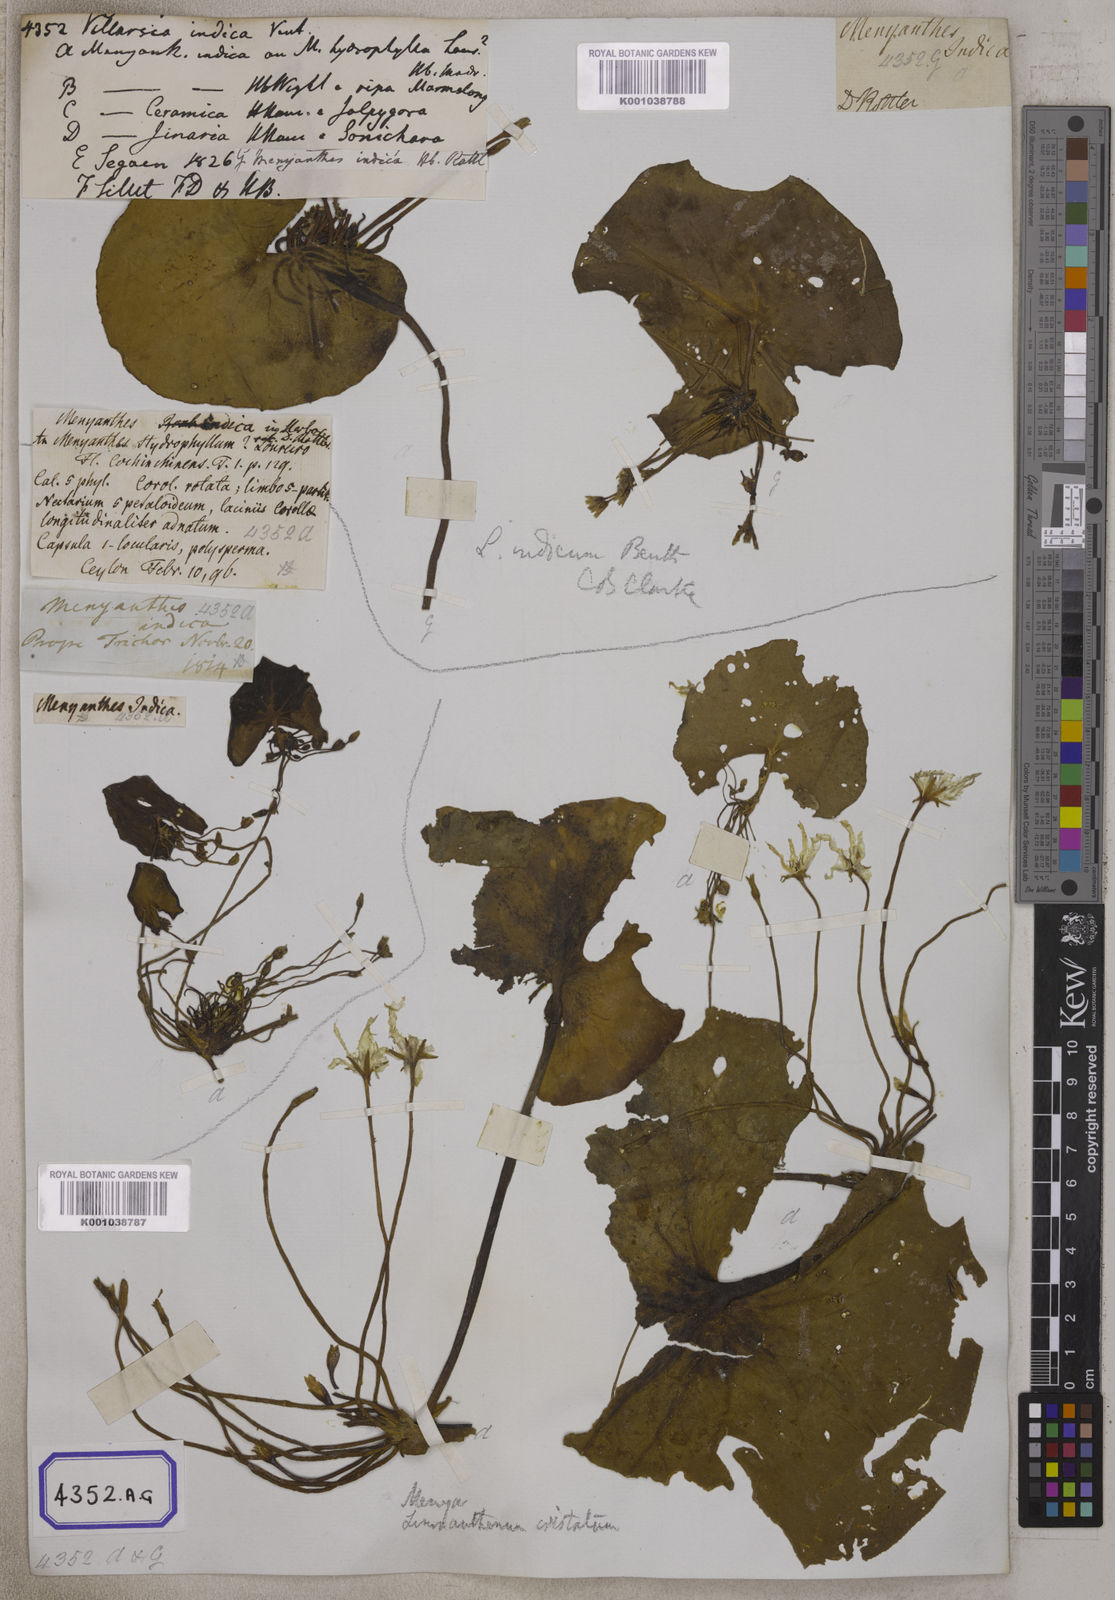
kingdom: Plantae
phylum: Tracheophyta
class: Magnoliopsida
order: Asterales
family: Menyanthaceae
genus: Villarsia
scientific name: Villarsia
